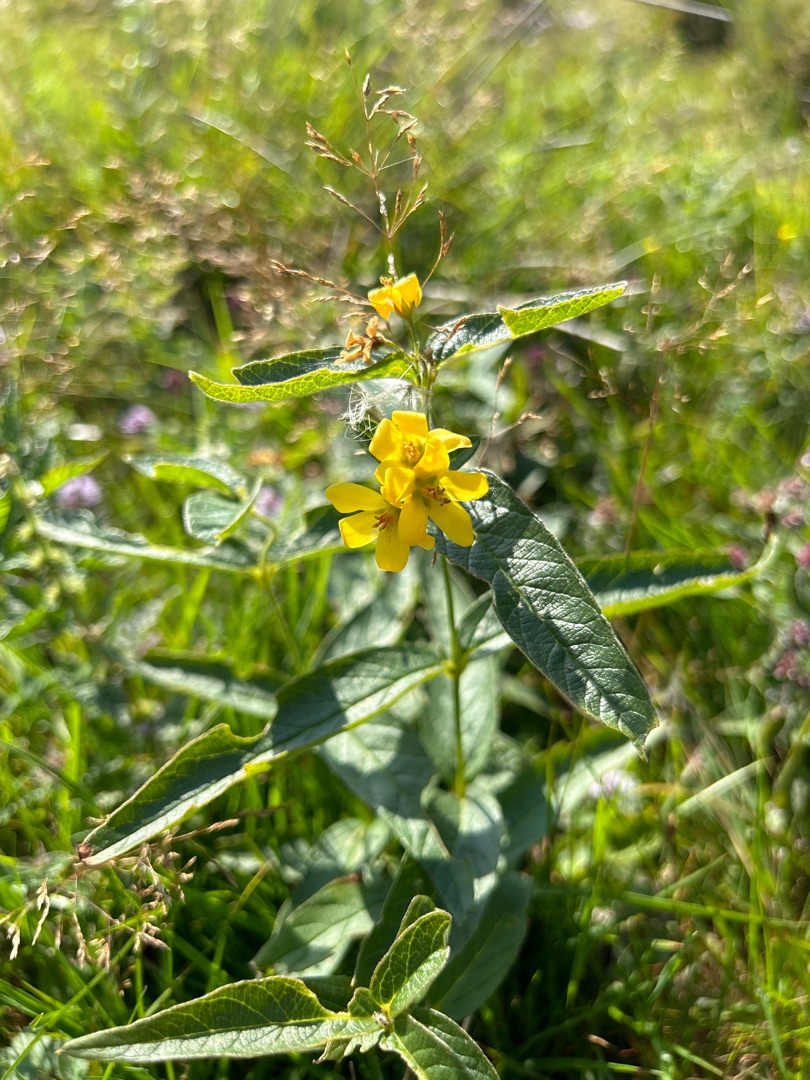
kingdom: Plantae
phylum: Tracheophyta
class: Magnoliopsida
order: Ericales
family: Primulaceae
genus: Lysimachia
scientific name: Lysimachia vulgaris
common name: Almindelig fredløs
